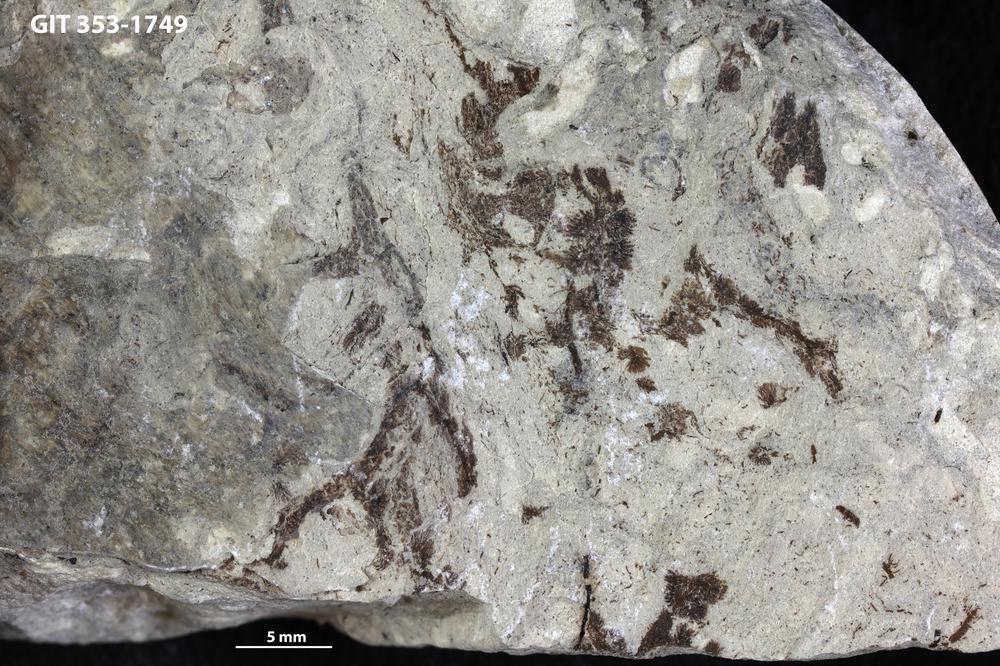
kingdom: Plantae
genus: Leveilleites
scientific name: Leveilleites hartnageli
